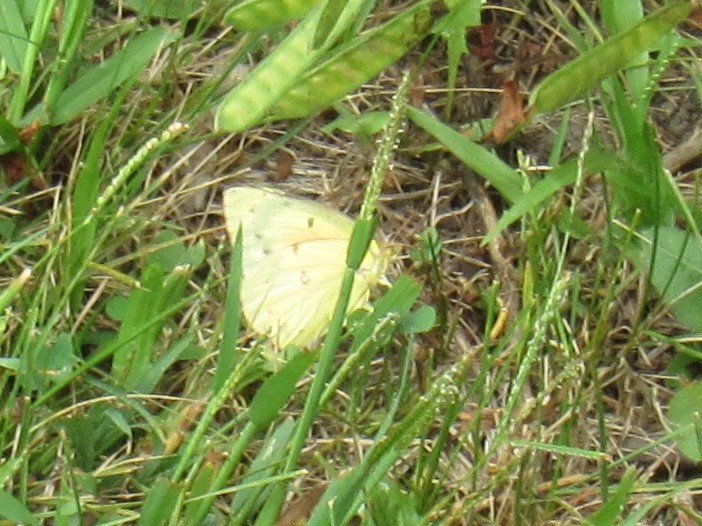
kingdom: Animalia
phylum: Arthropoda
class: Insecta
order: Lepidoptera
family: Pieridae
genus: Colias
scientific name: Colias eurytheme
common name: Orange Sulphur
